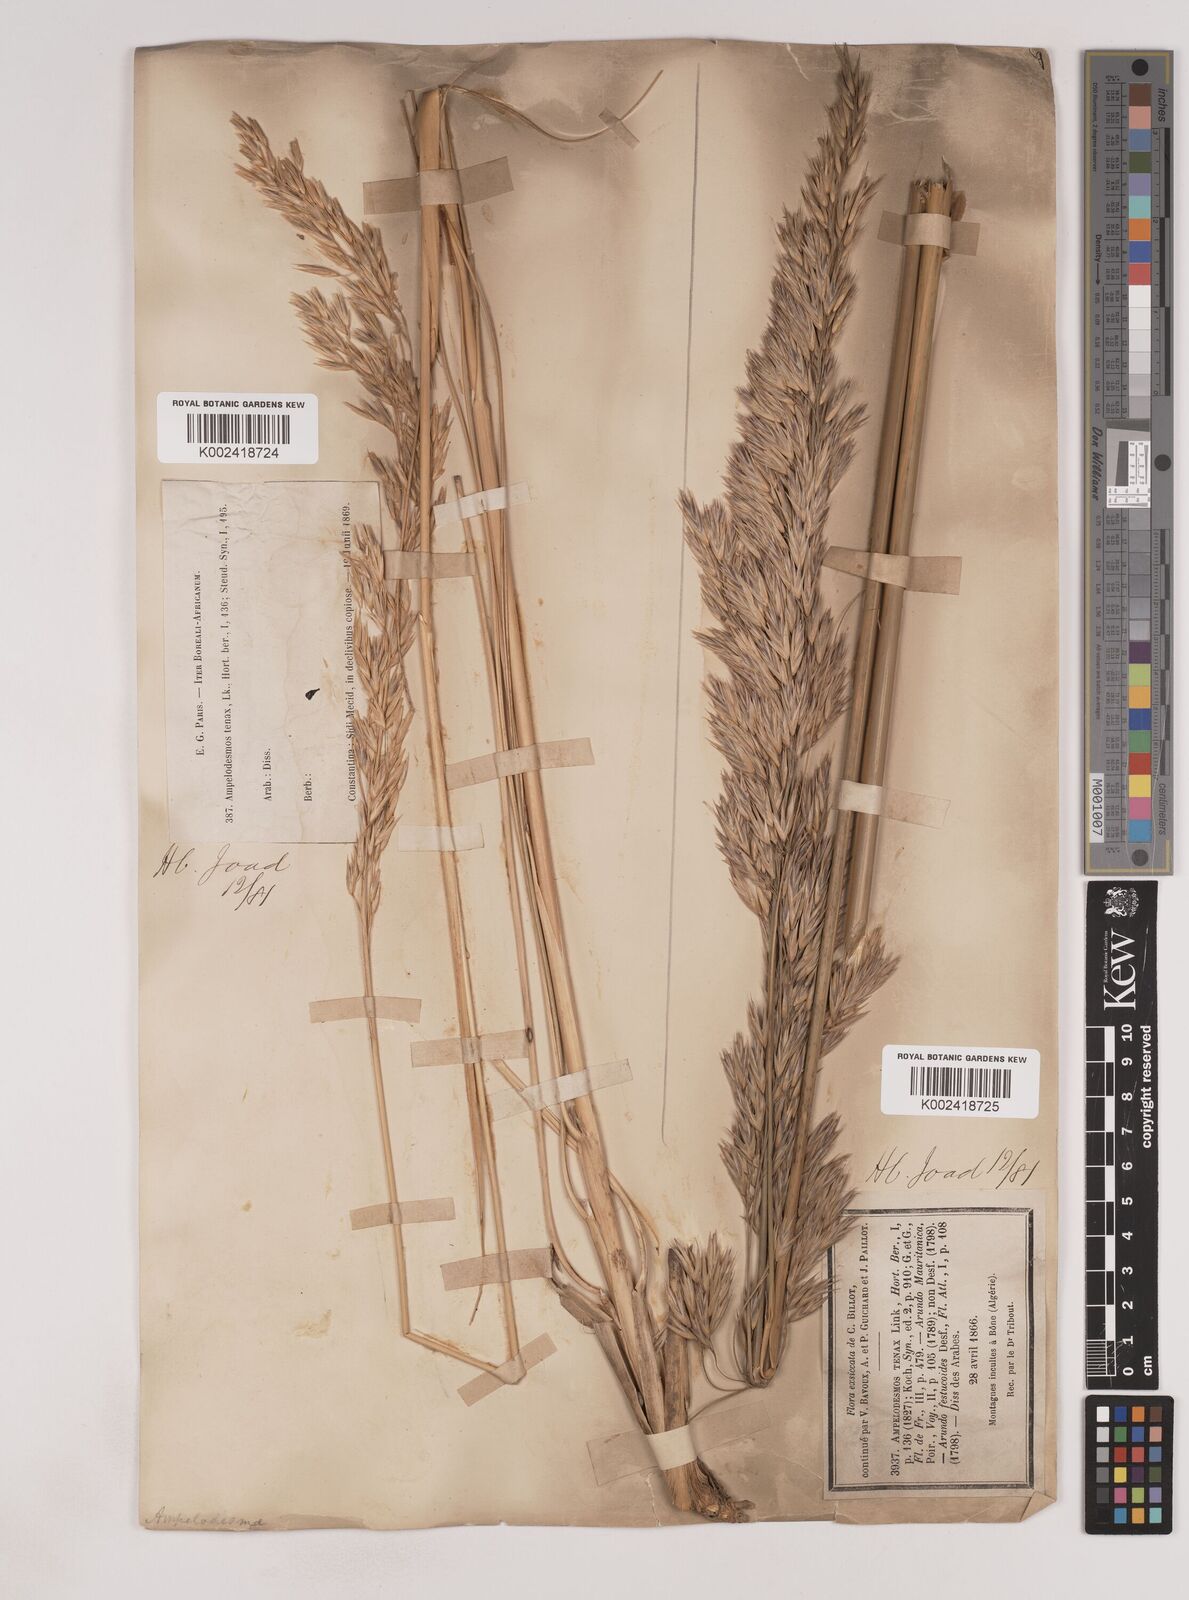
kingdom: Plantae
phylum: Tracheophyta
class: Liliopsida
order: Poales
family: Poaceae
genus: Ampelodesmos
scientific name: Ampelodesmos mauritanicus
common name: Mauritanian grass
